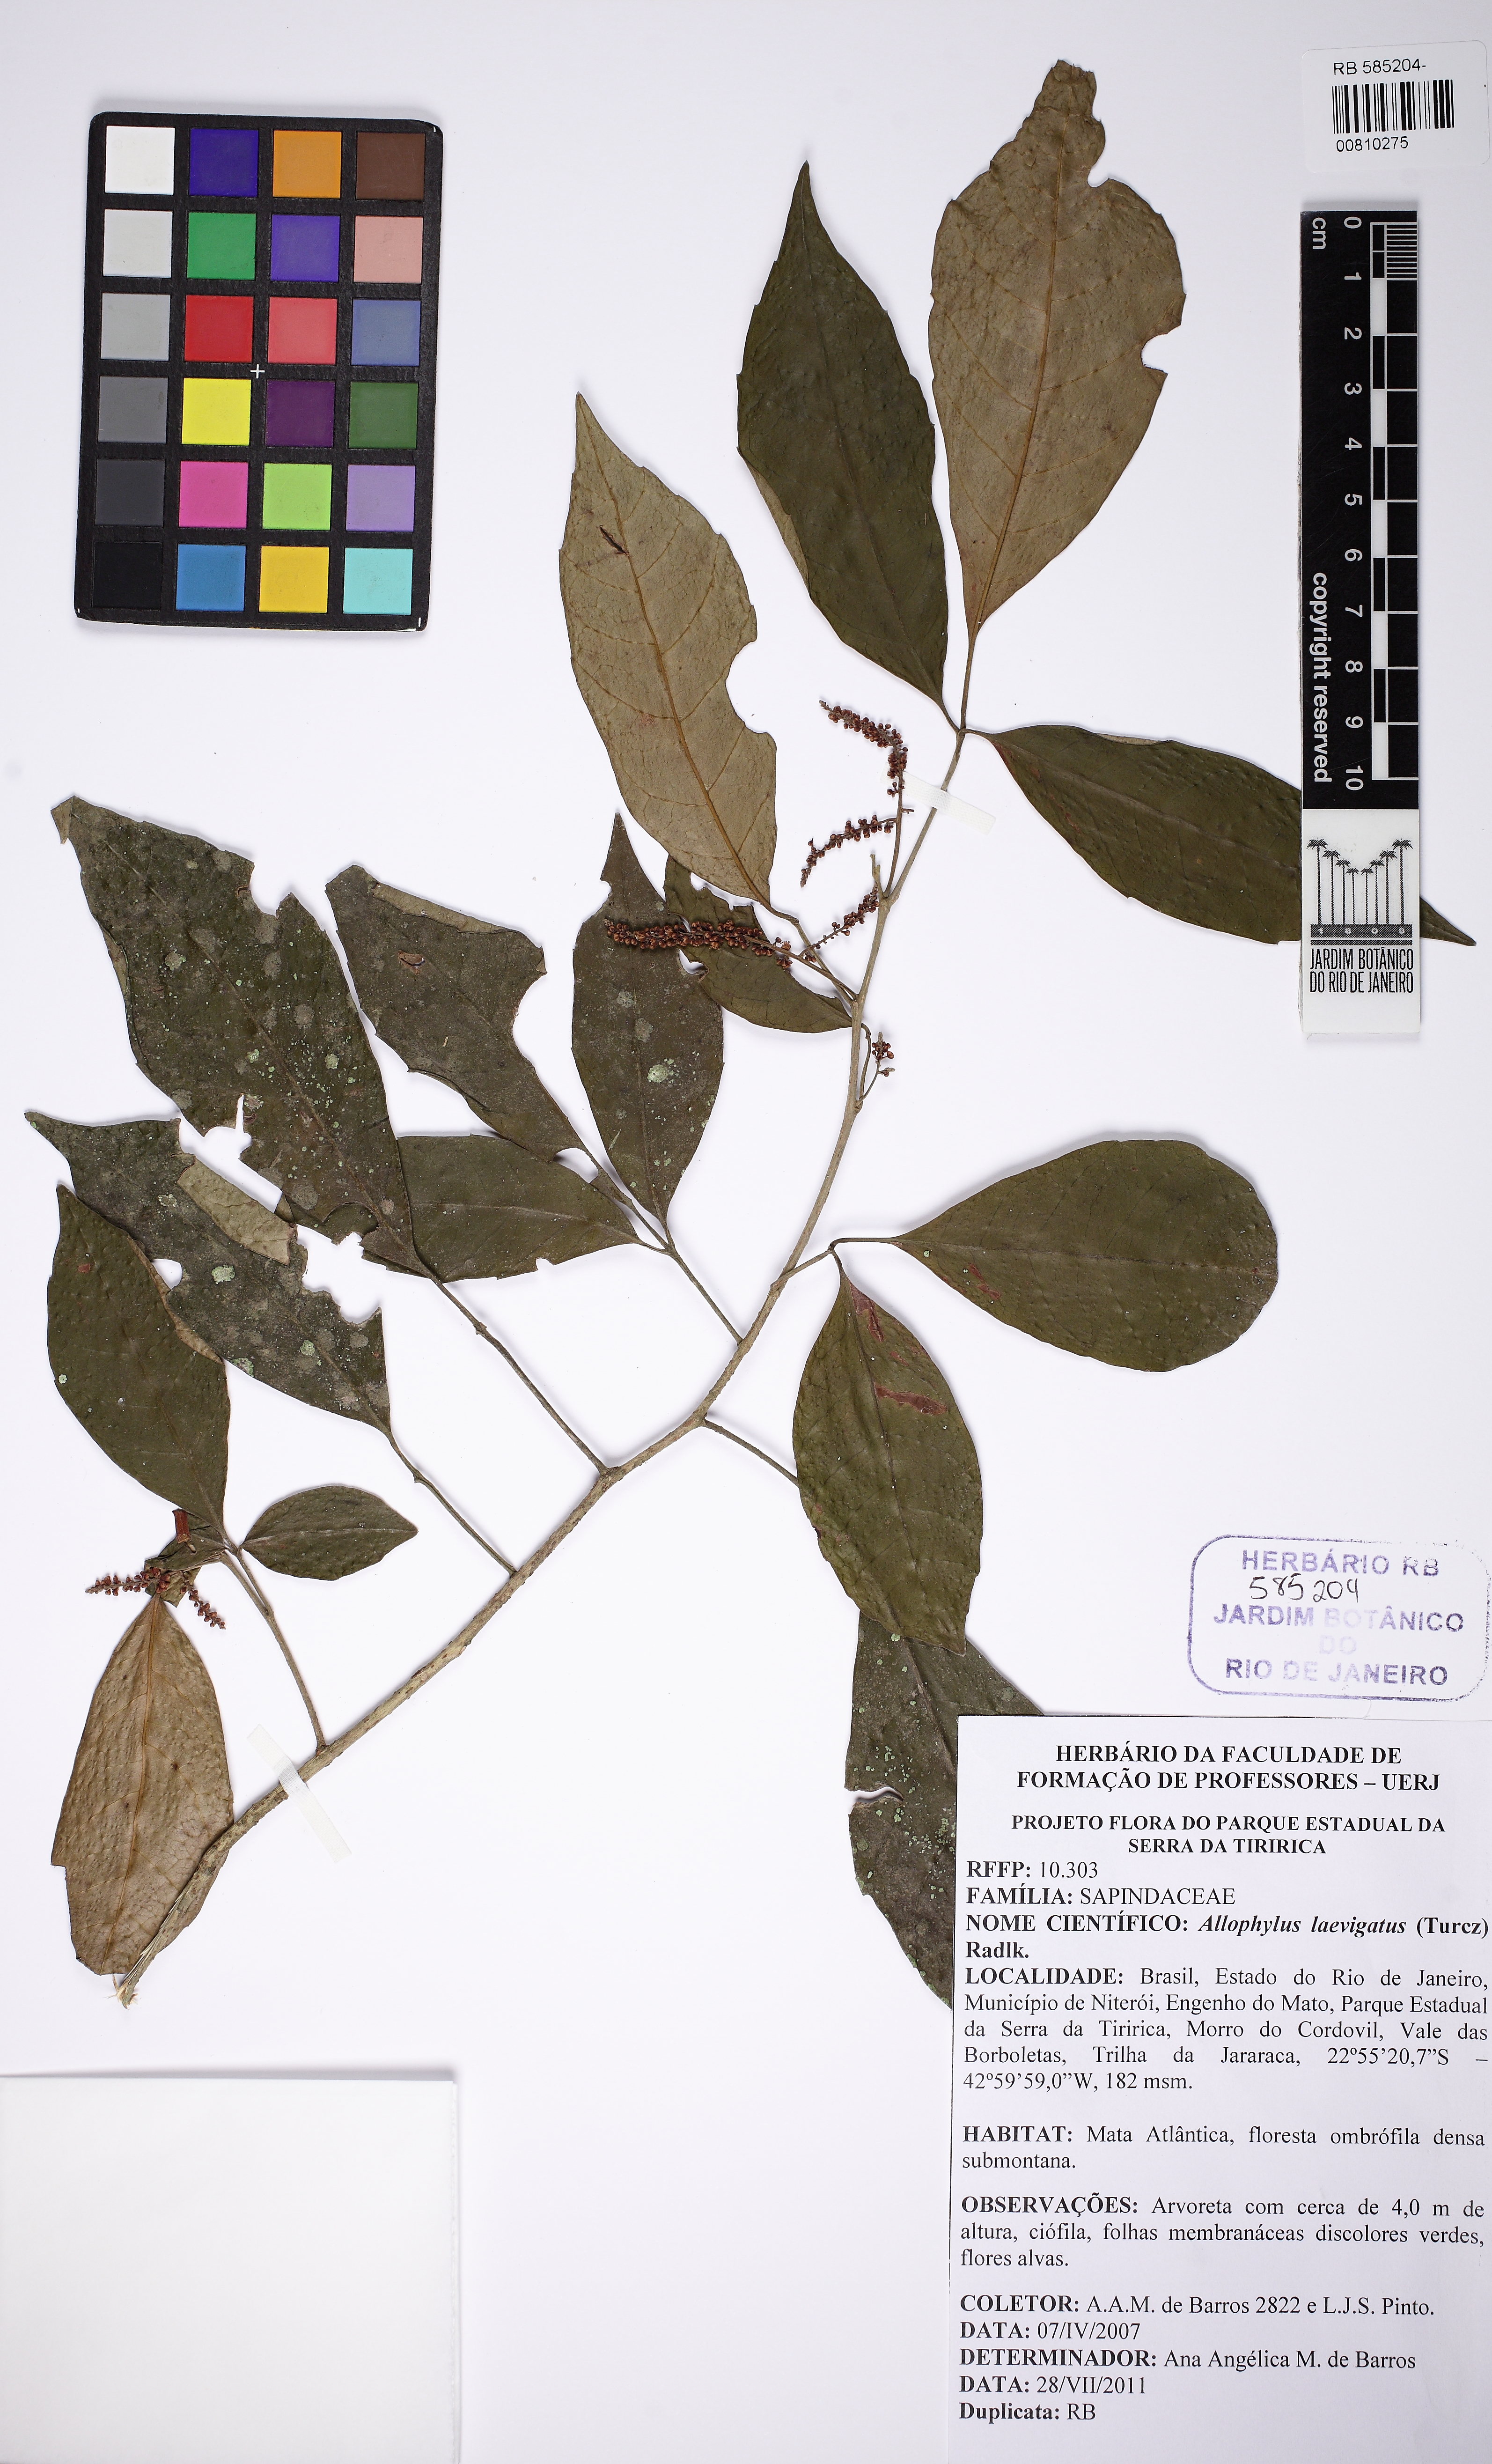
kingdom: Plantae
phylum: Tracheophyta
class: Magnoliopsida
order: Sapindales
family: Sapindaceae
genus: Allophylus
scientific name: Allophylus petiolulatus
